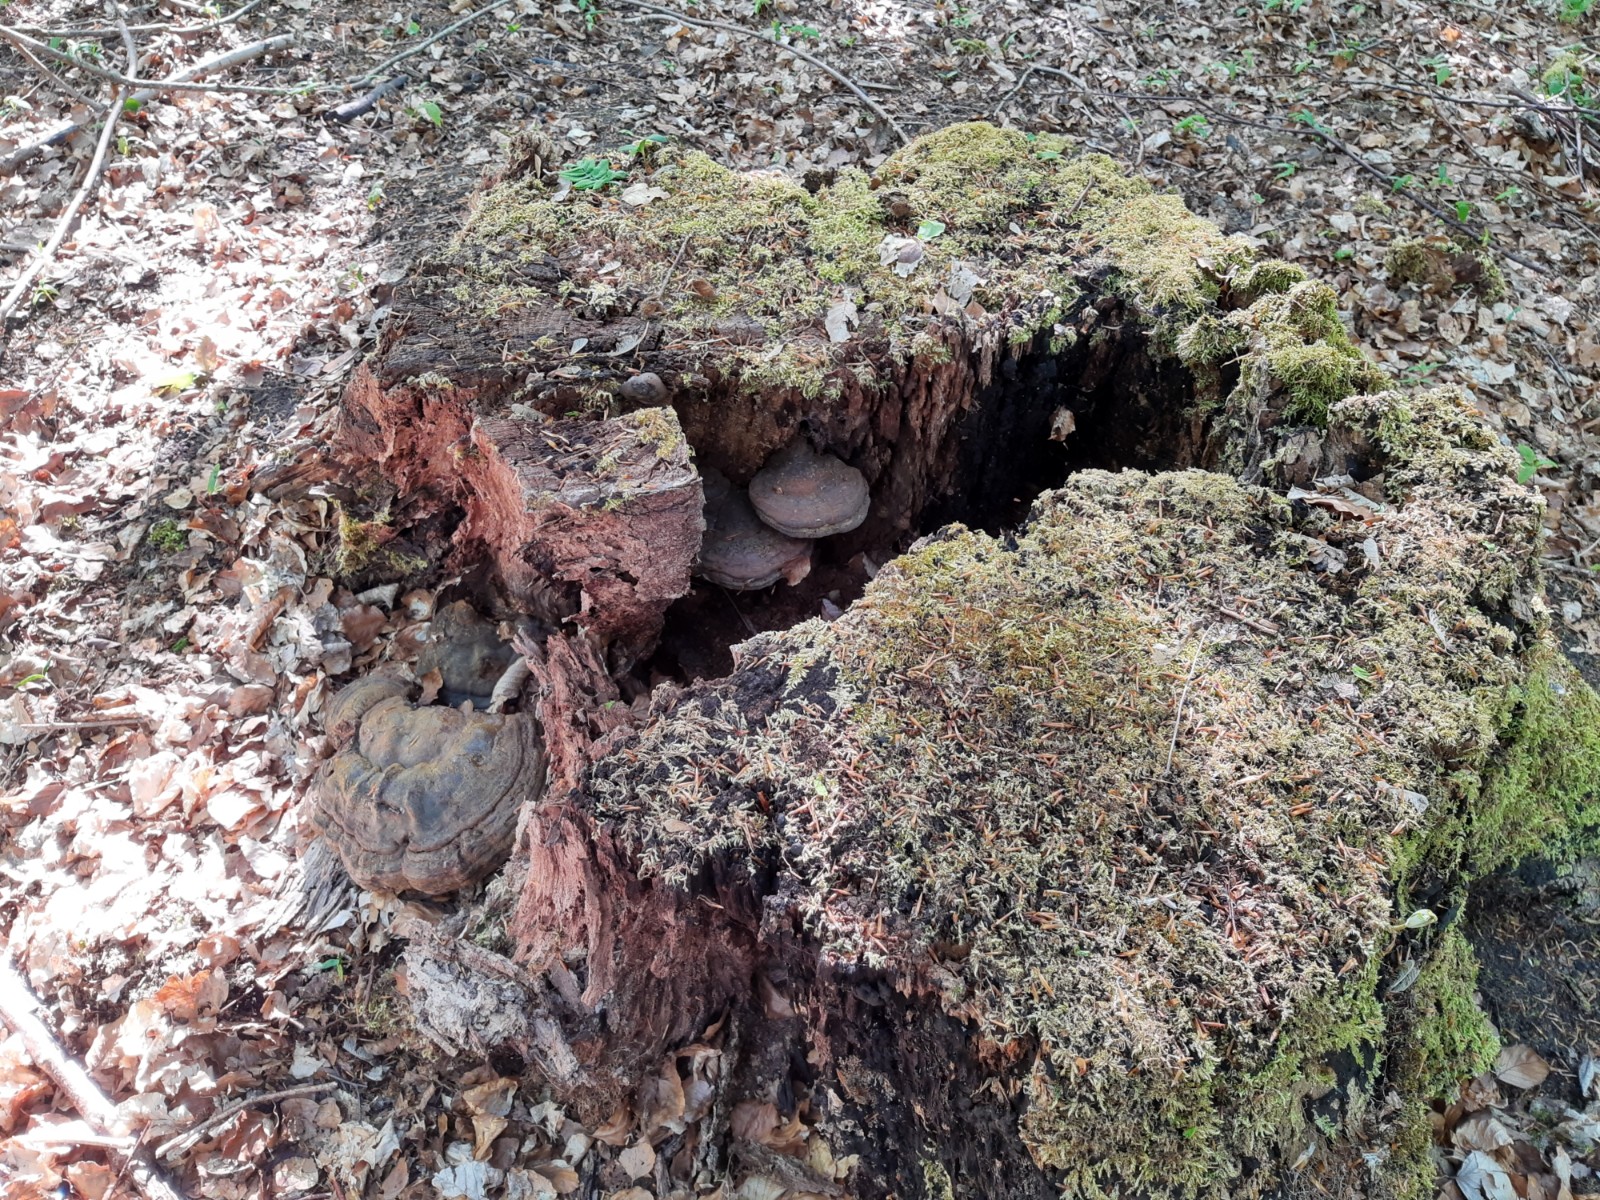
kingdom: Fungi
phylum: Basidiomycota
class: Agaricomycetes
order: Polyporales
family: Polyporaceae
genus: Ganoderma
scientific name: Ganoderma pfeifferi
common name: kobberrød lakporesvamp
